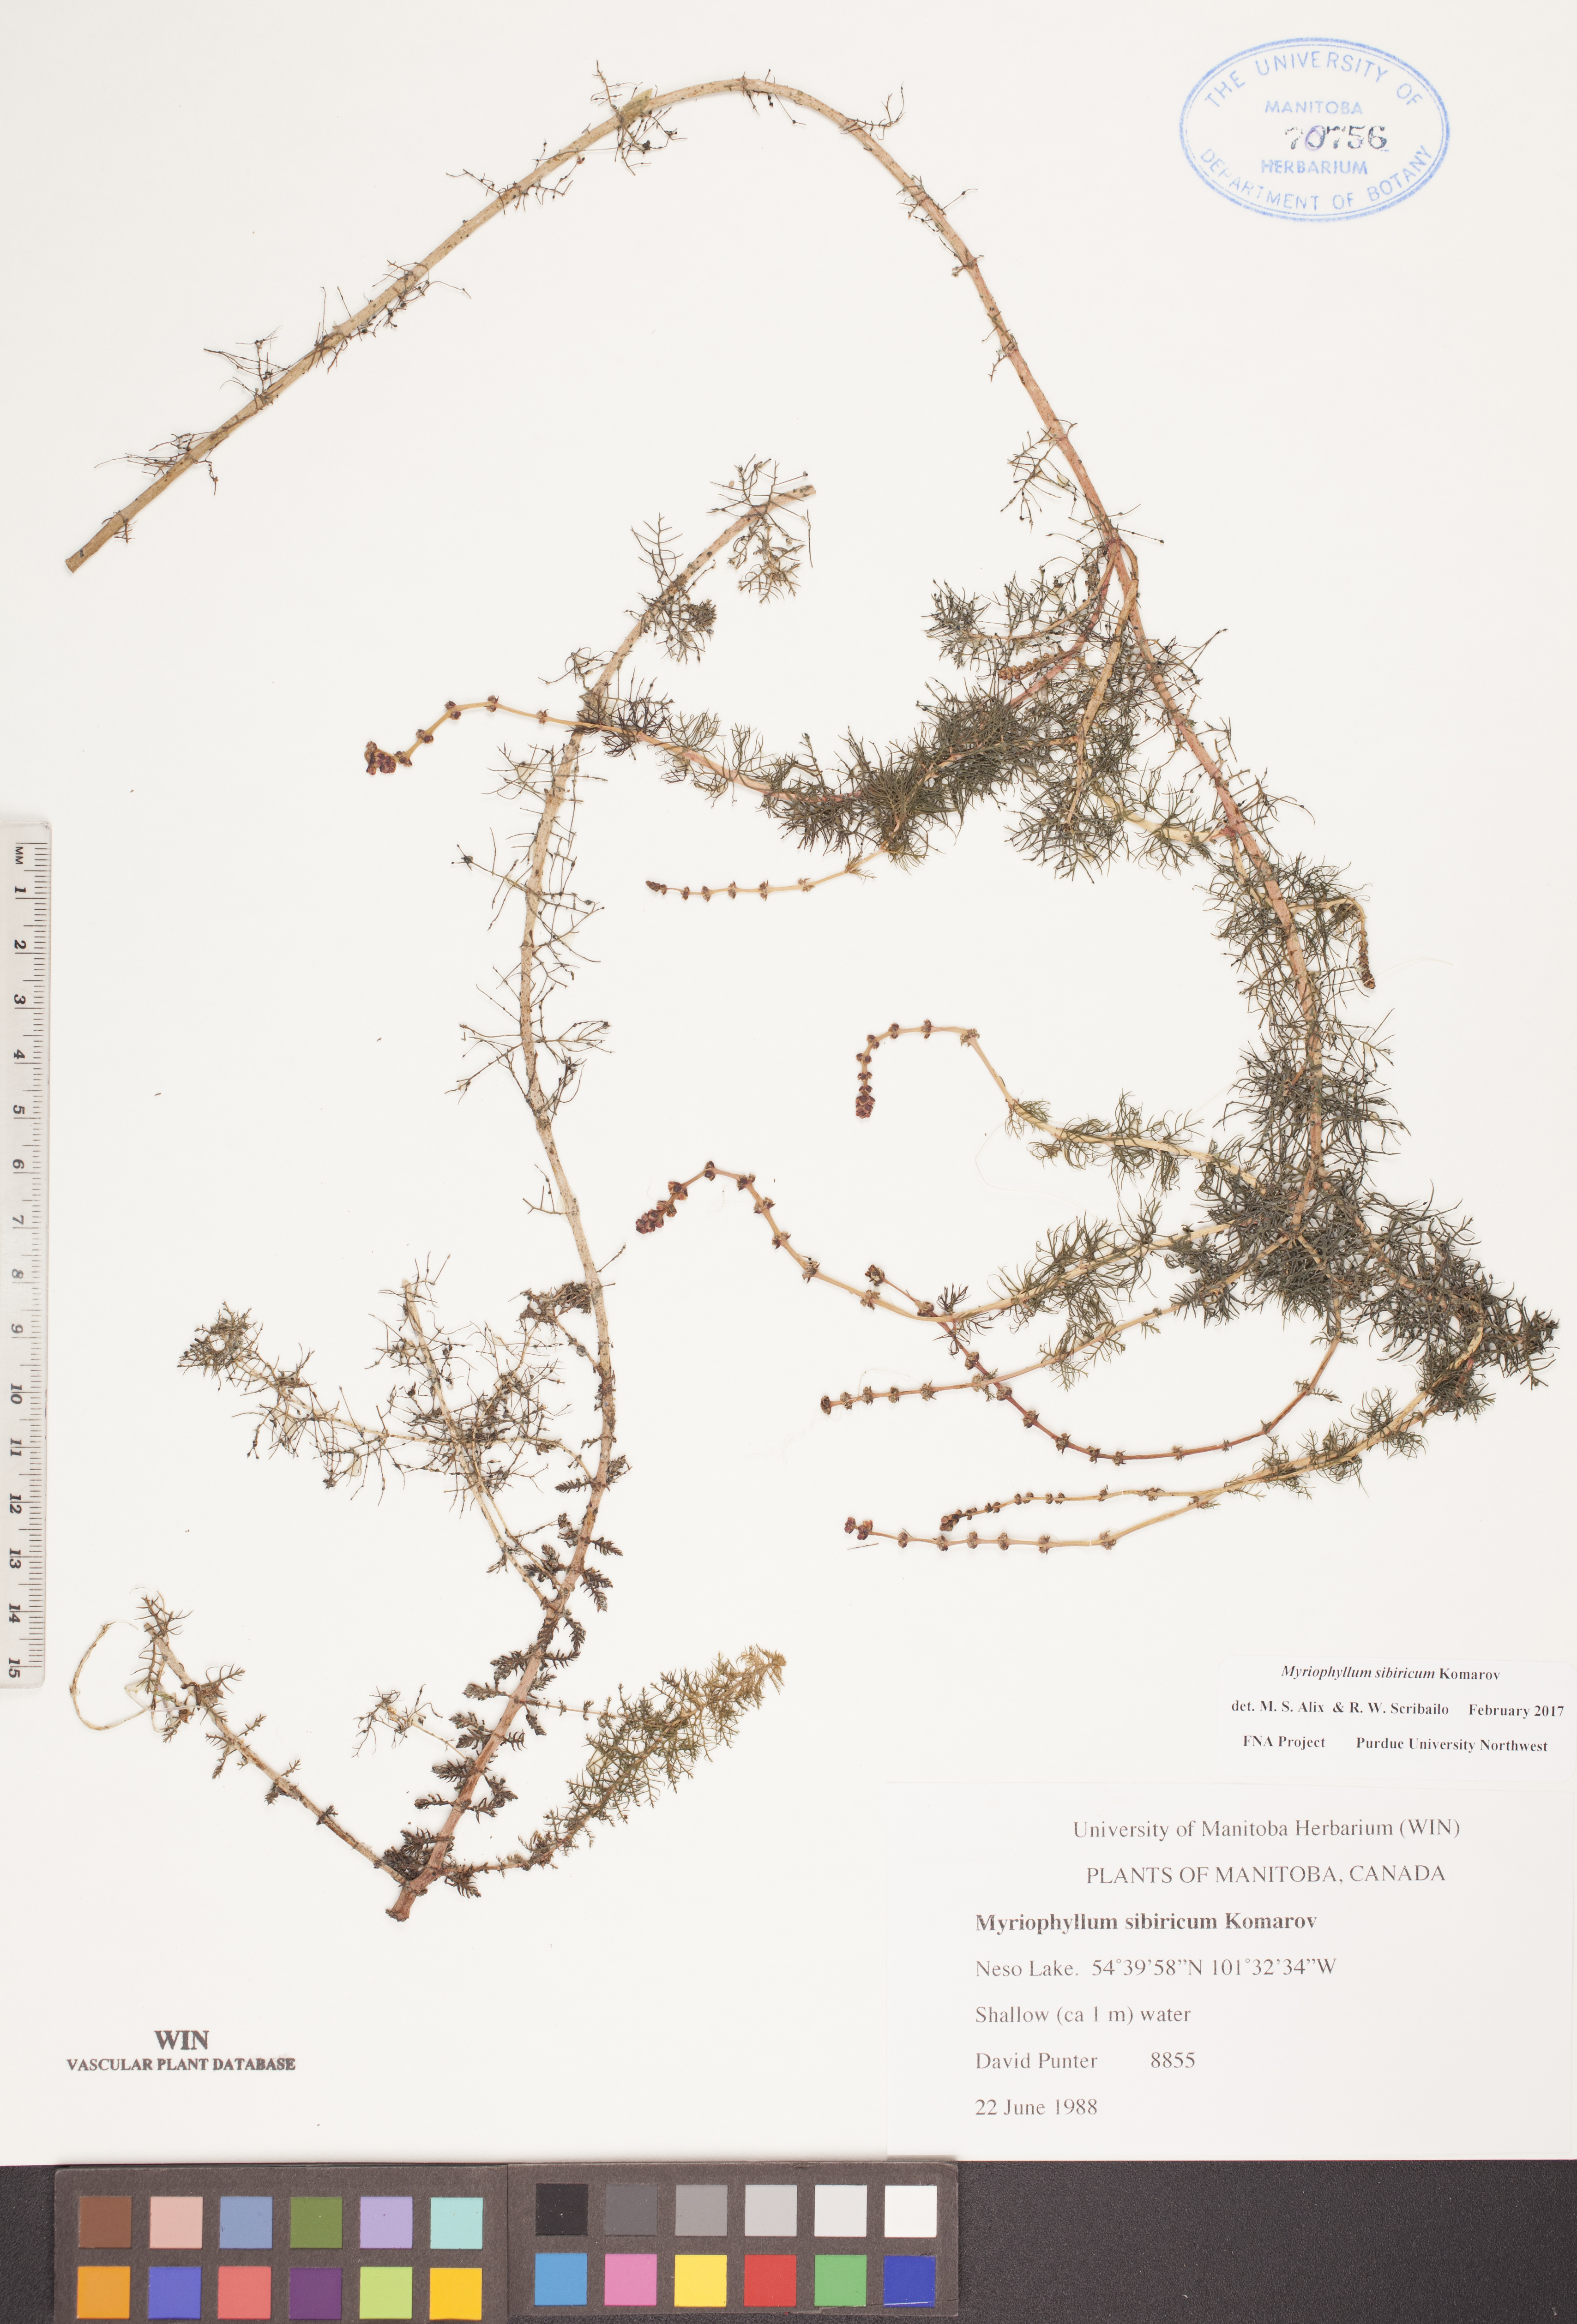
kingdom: Plantae
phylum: Tracheophyta
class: Magnoliopsida
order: Saxifragales
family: Haloragaceae
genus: Myriophyllum
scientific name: Myriophyllum sibiricum
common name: Siberian water-milfoil
